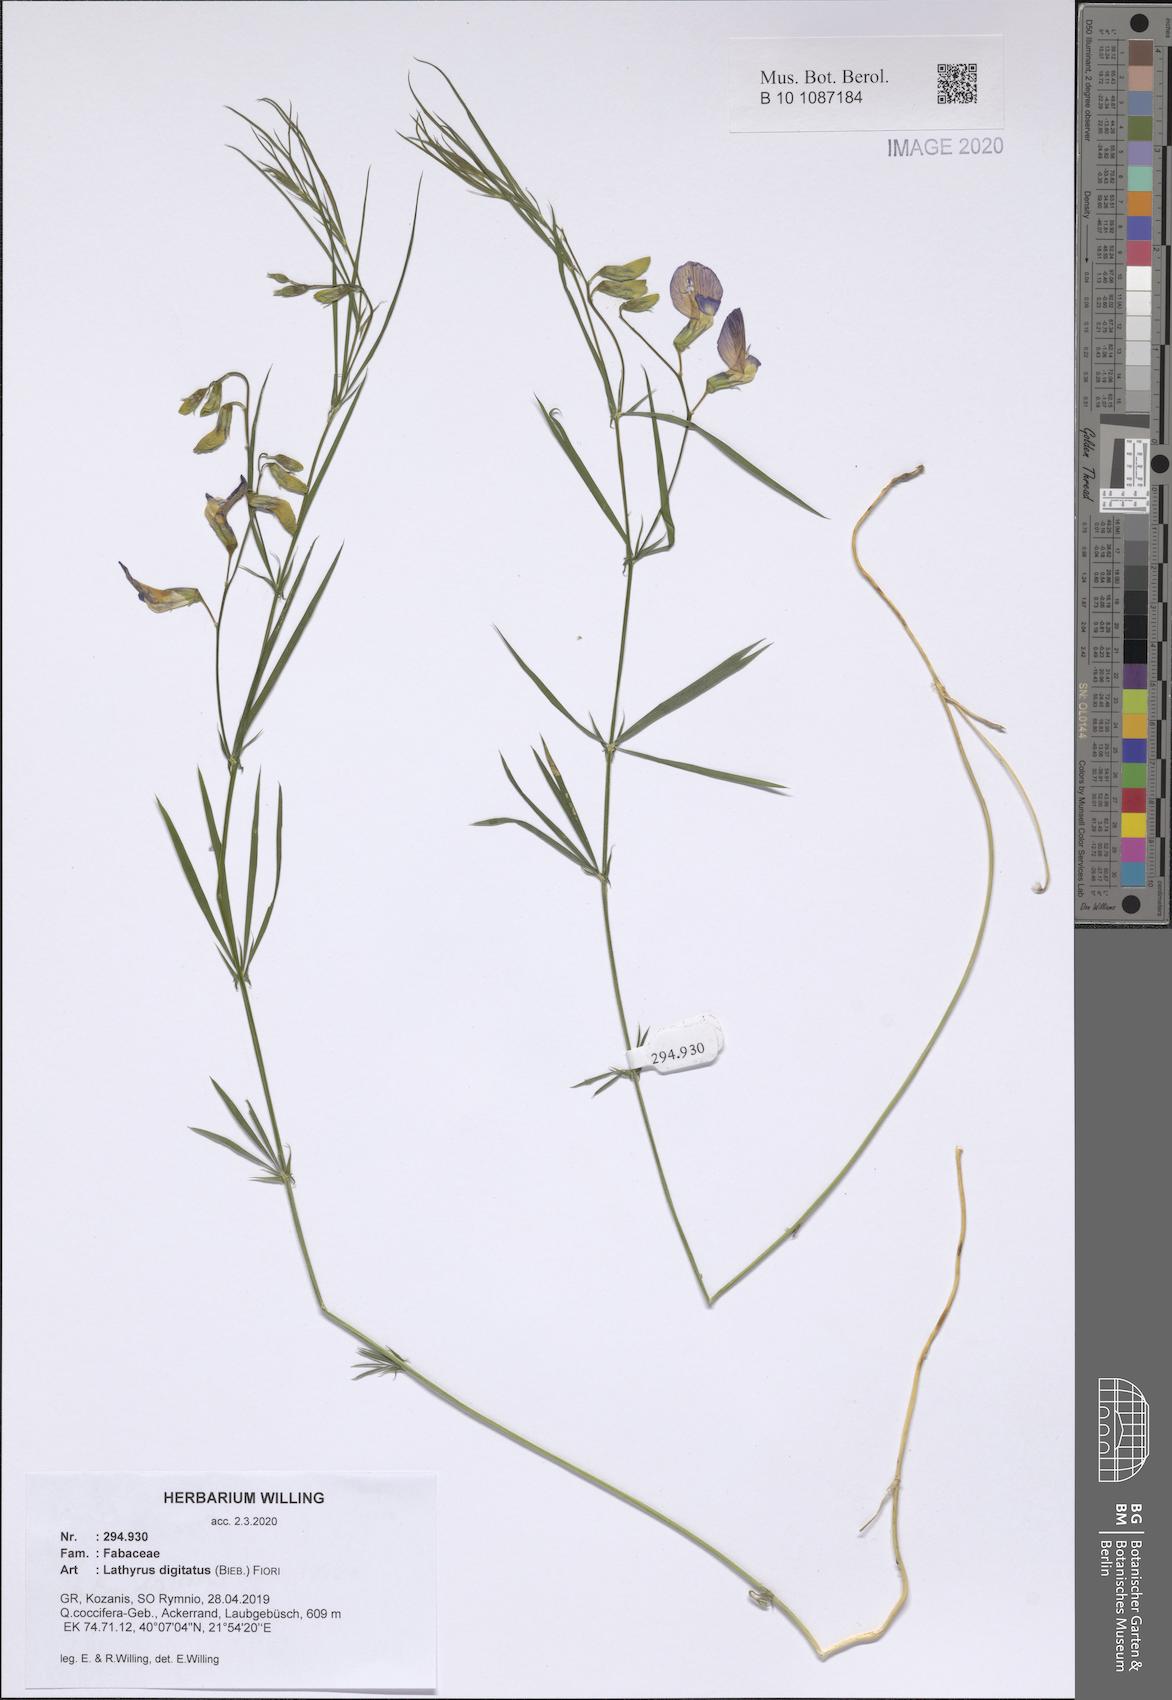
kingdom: Plantae
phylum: Tracheophyta
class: Magnoliopsida
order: Fabales
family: Fabaceae
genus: Lathyrus
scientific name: Lathyrus digitatus
